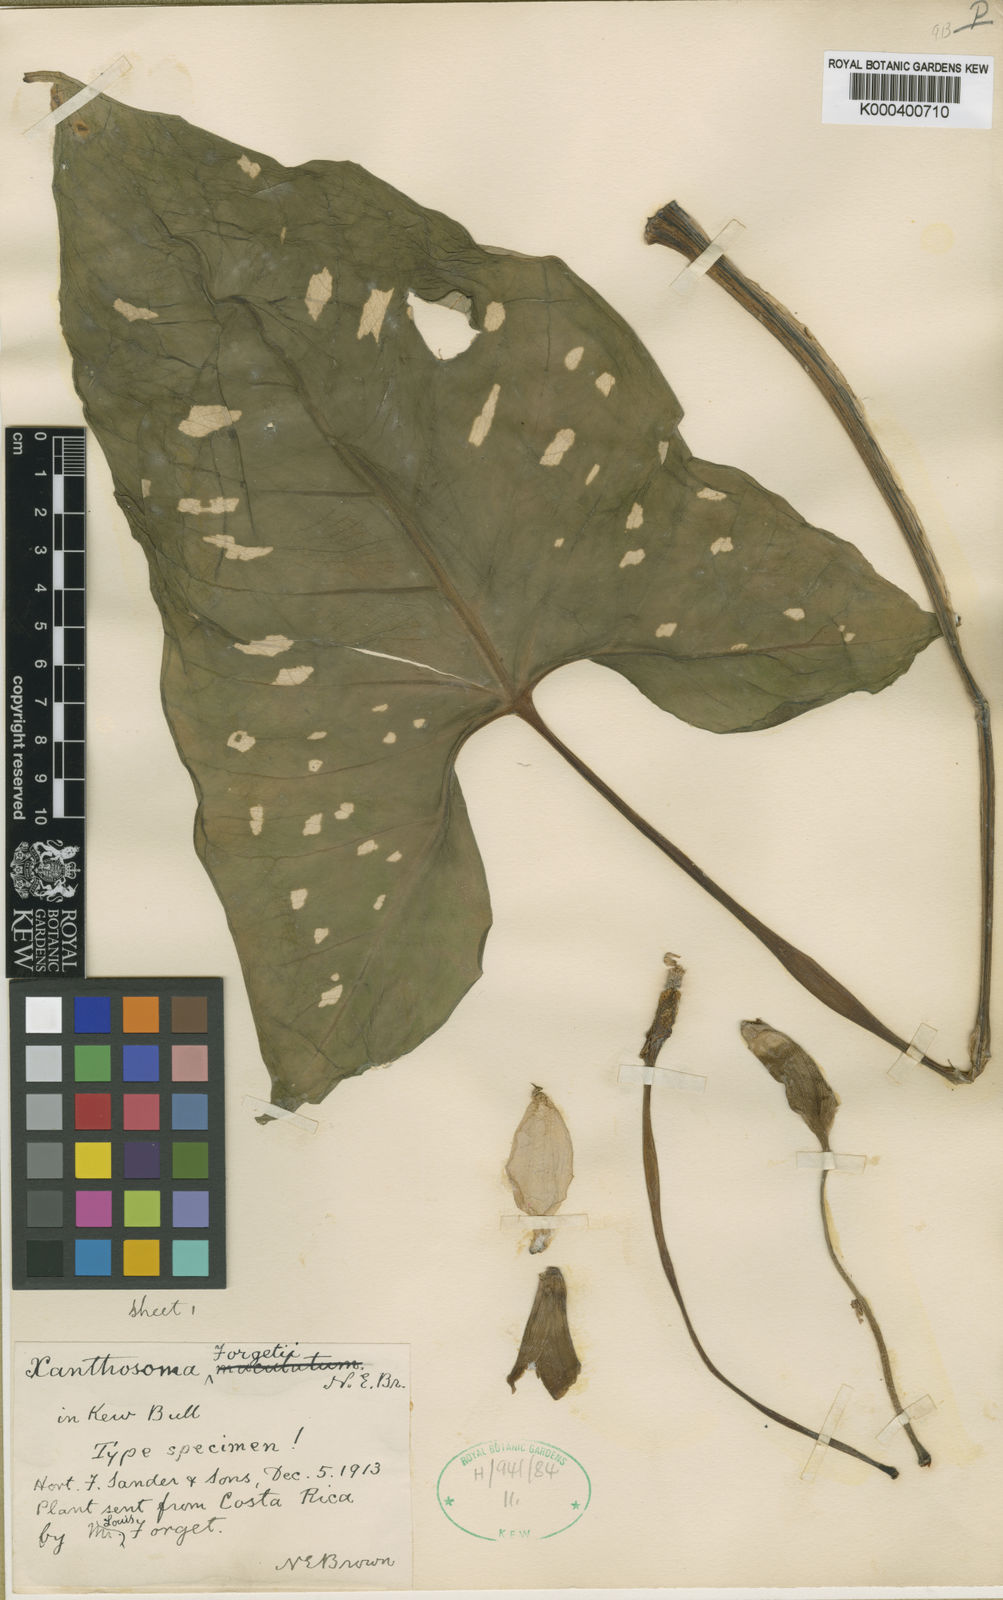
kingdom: Plantae
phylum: Tracheophyta
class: Liliopsida
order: Alismatales
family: Araceae
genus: Xanthosoma
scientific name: Xanthosoma
